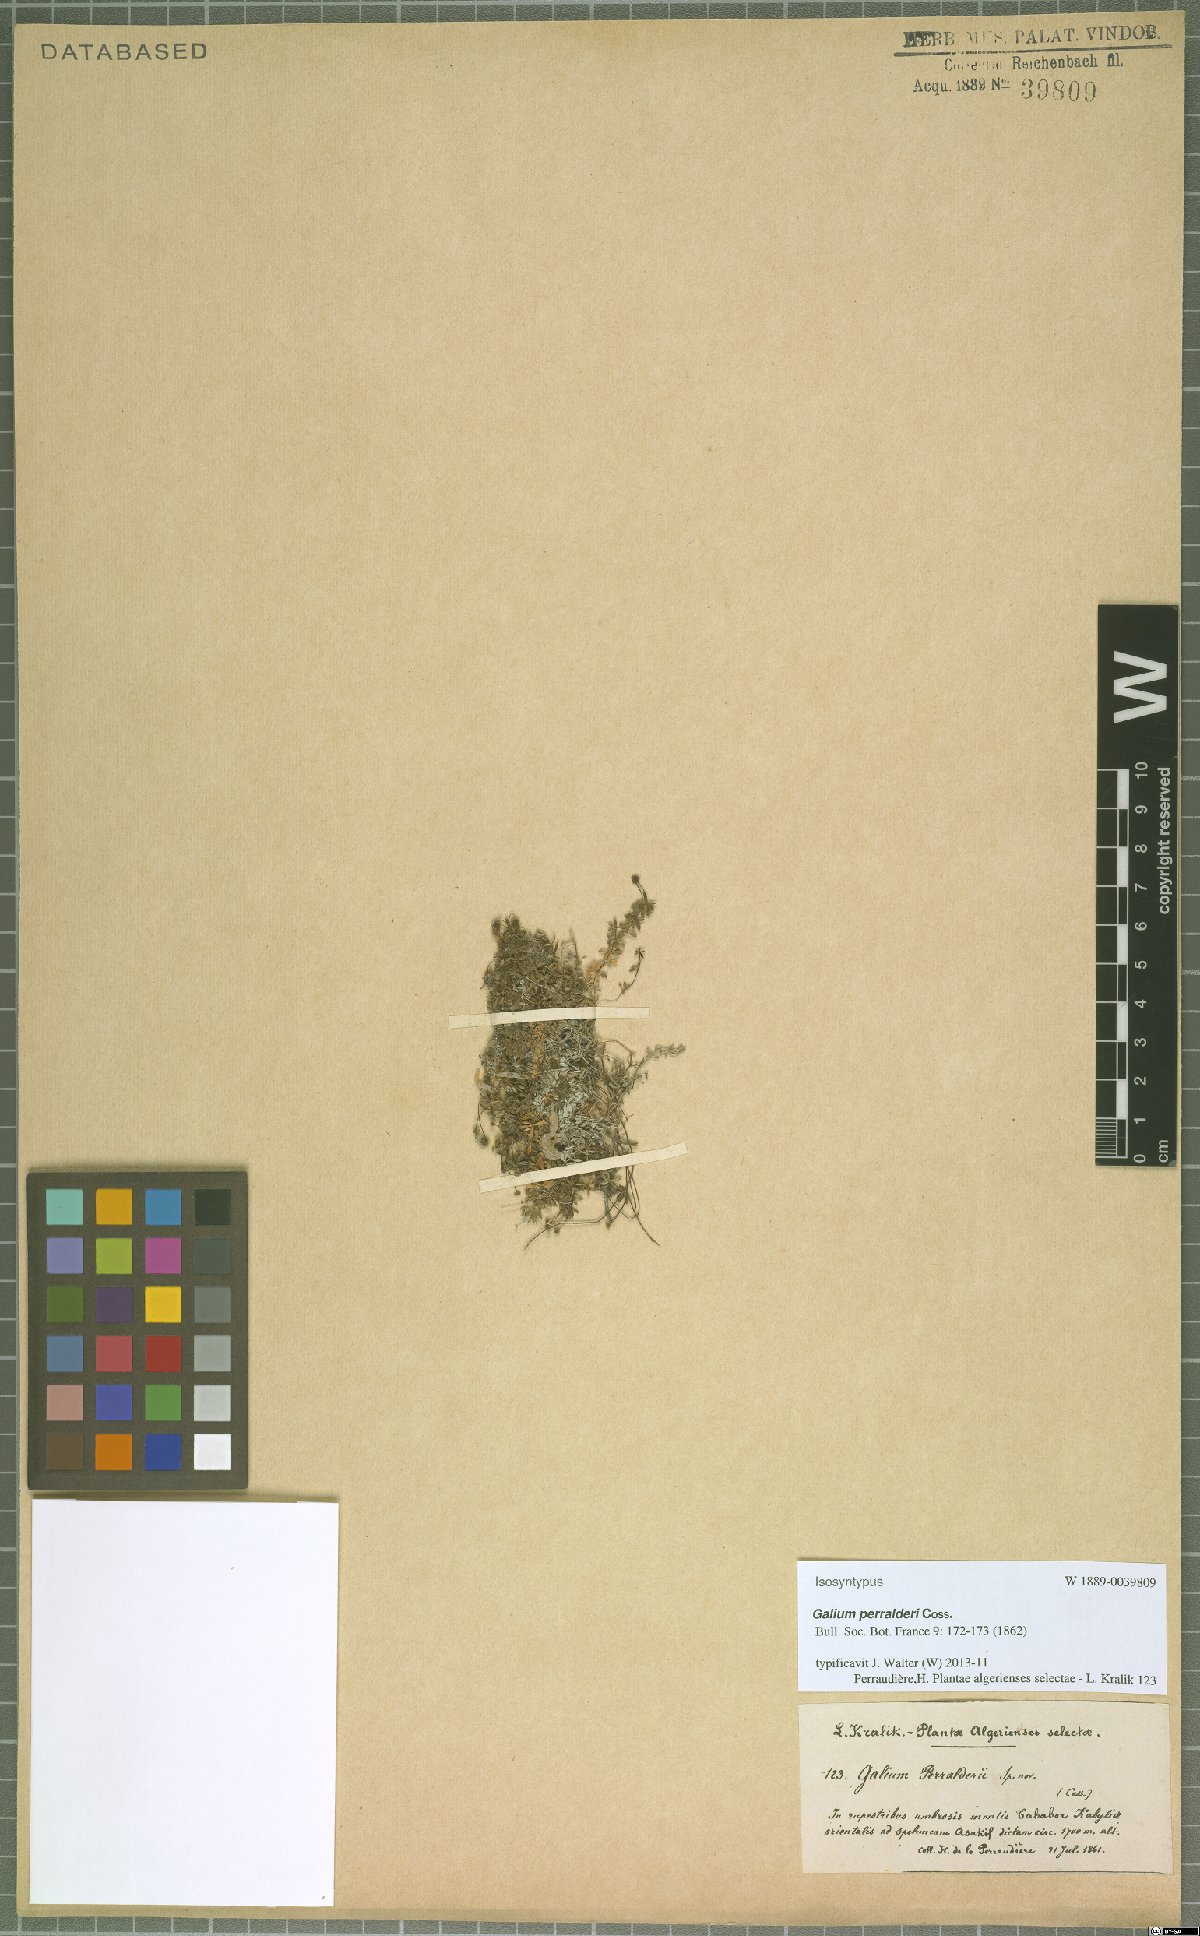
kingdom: Plantae
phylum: Tracheophyta
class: Magnoliopsida
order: Gentianales
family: Rubiaceae
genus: Galium
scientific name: Galium perralderii
